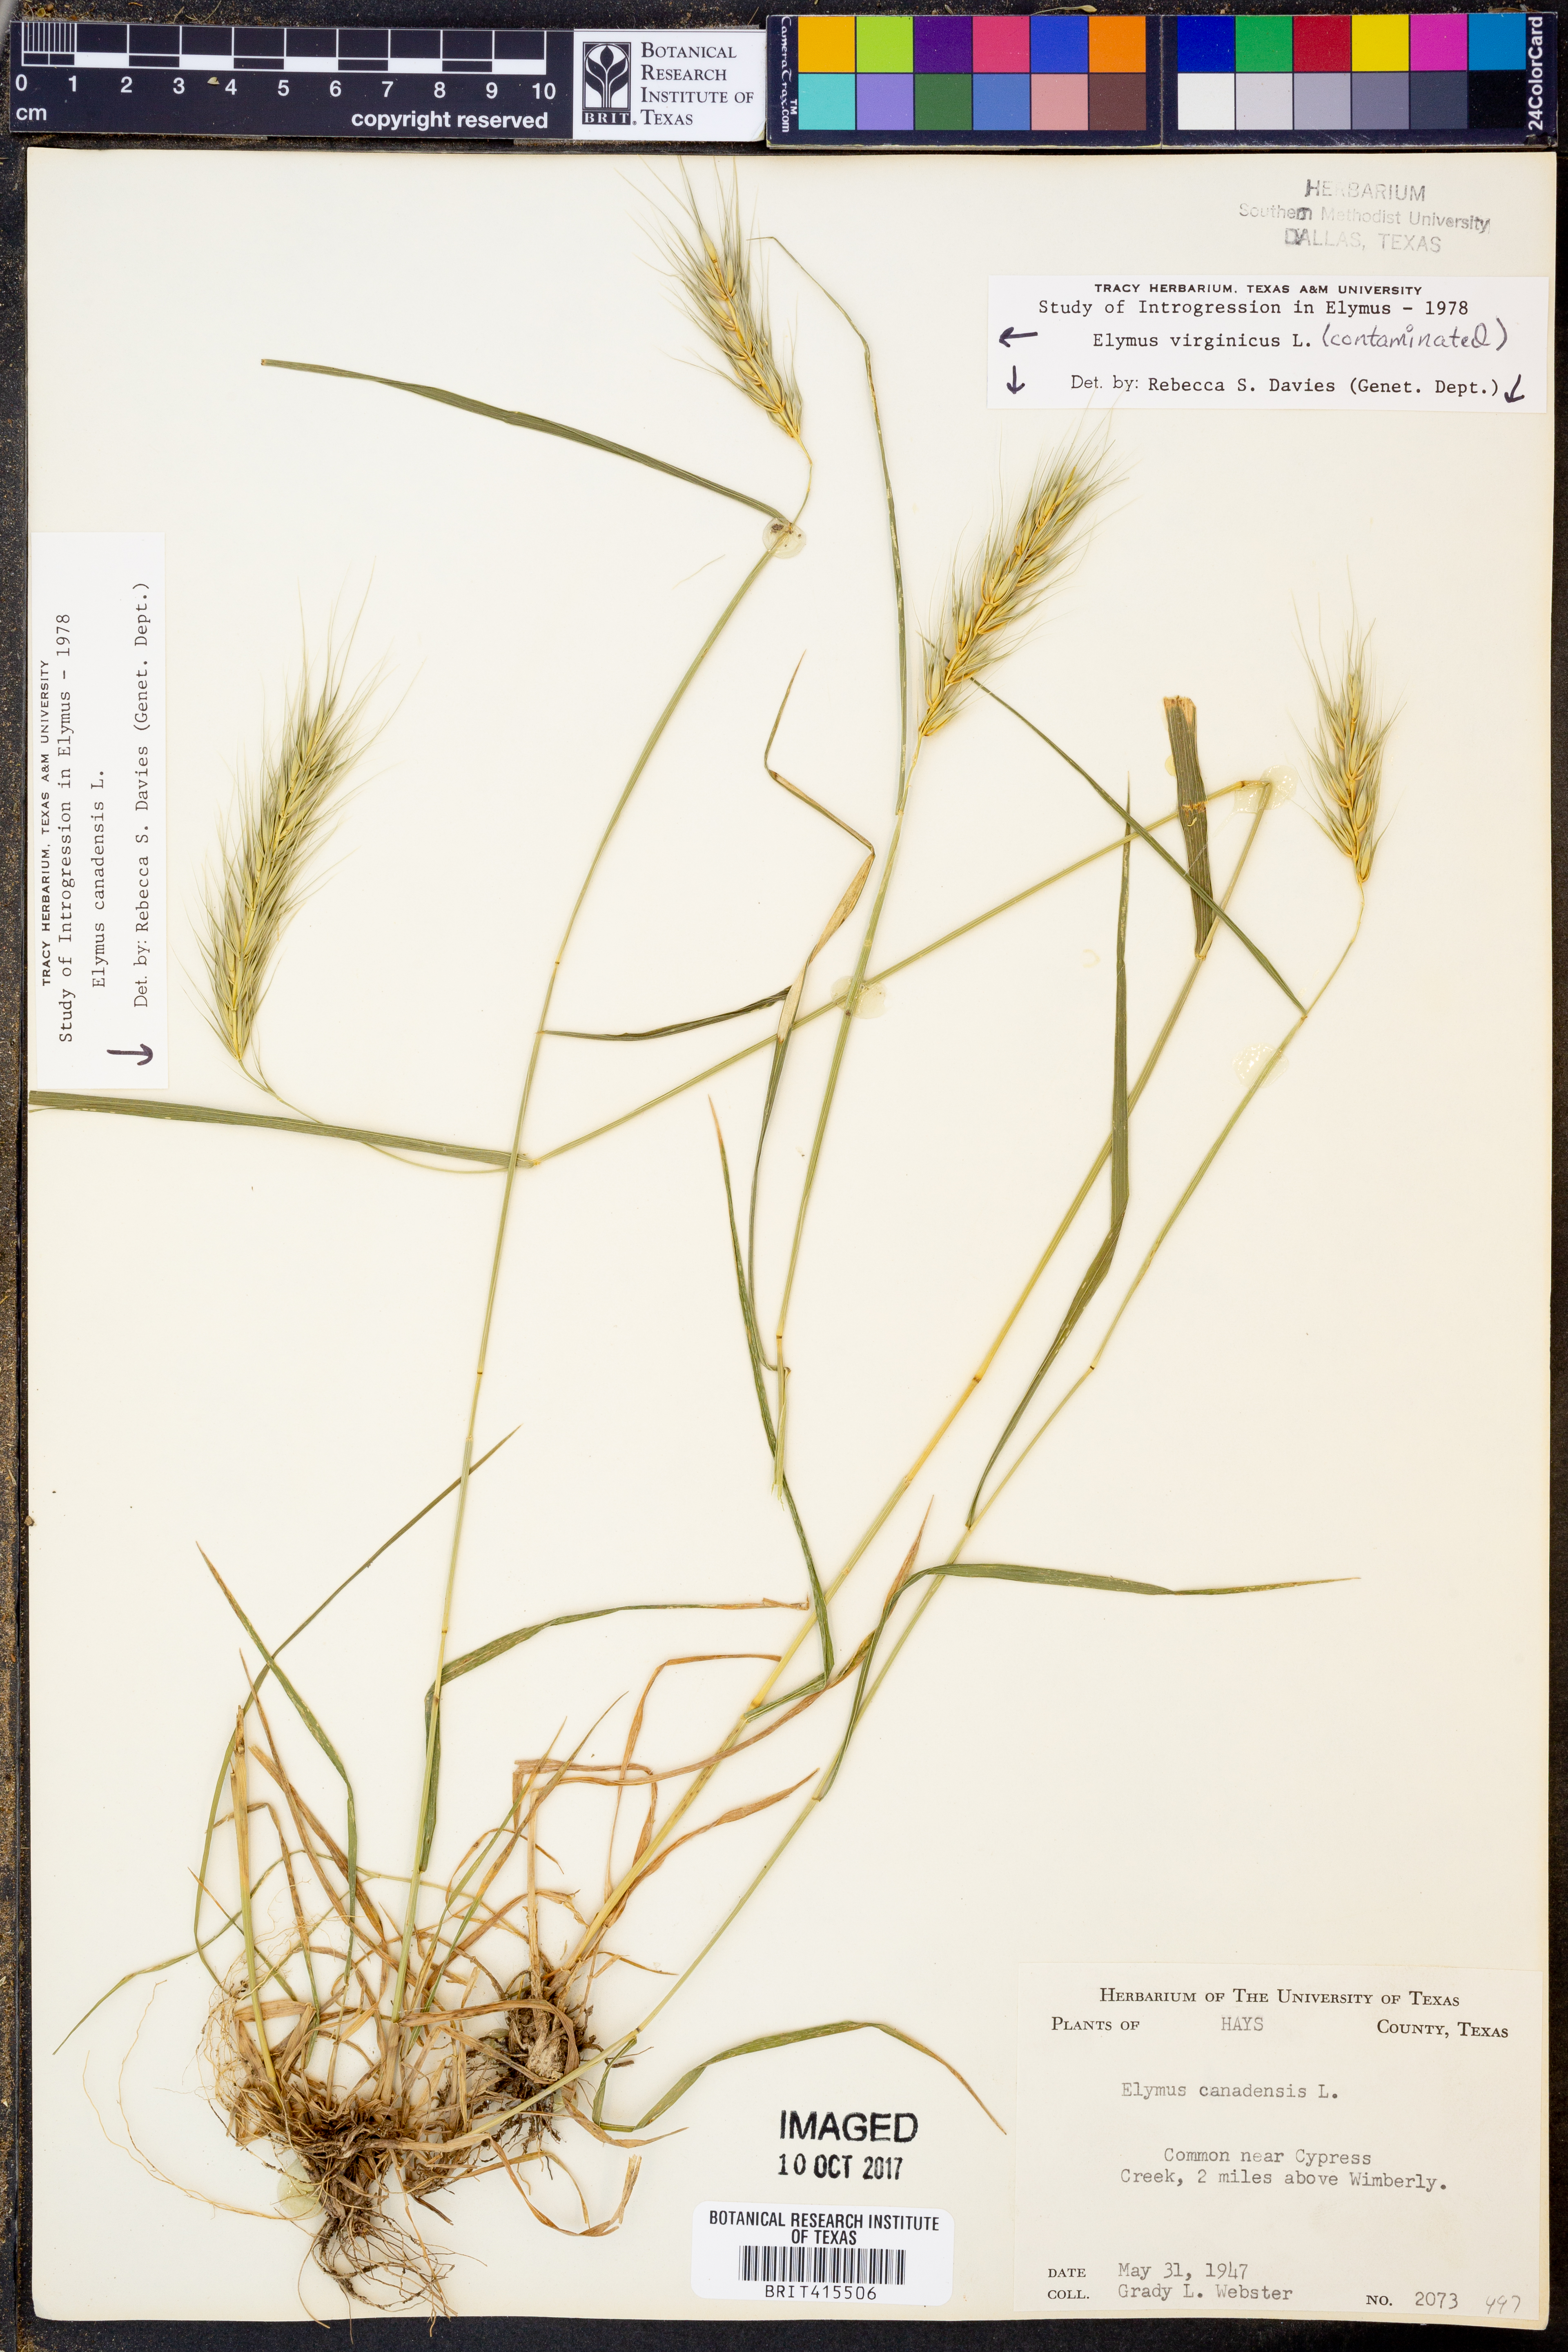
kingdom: Plantae
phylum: Tracheophyta
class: Liliopsida
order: Poales
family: Poaceae
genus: Elymus
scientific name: Elymus canadensis
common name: Canada wild rye
